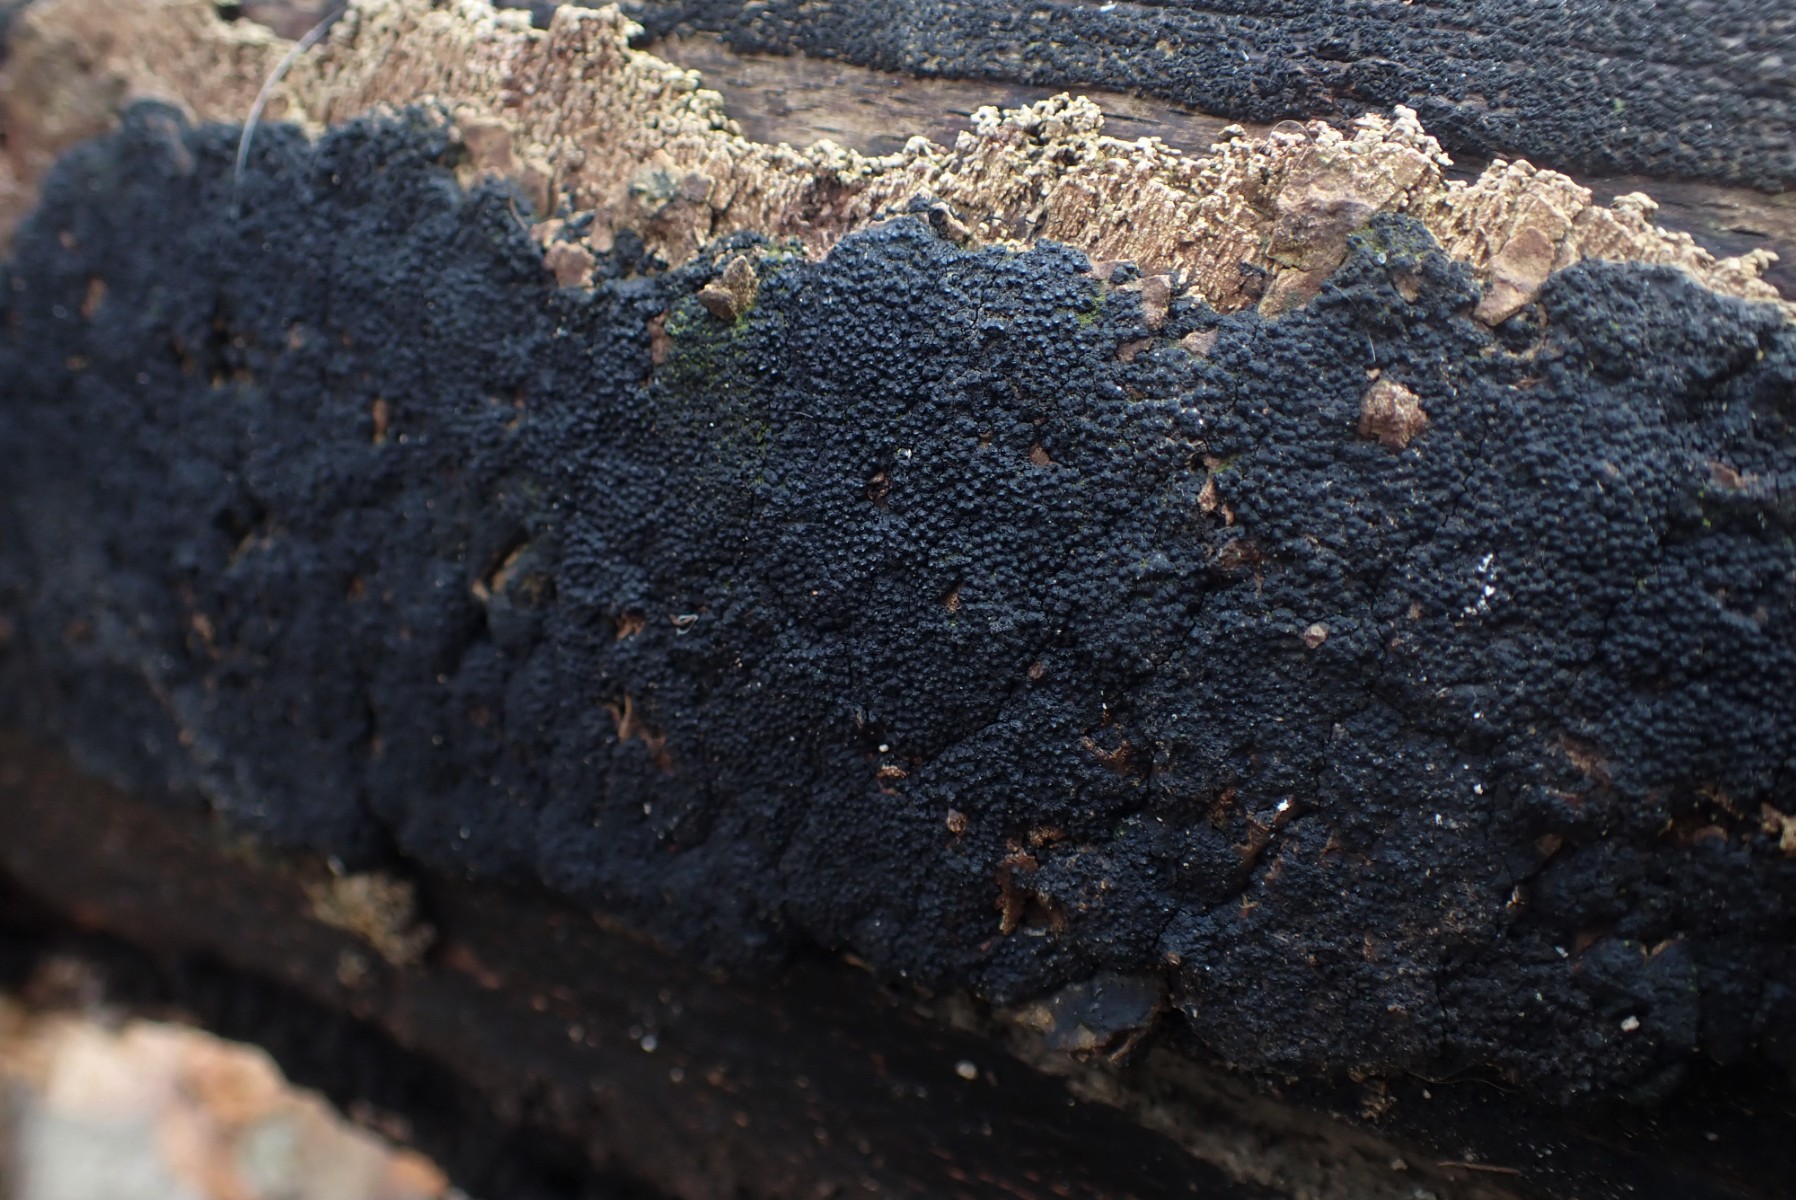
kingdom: Fungi
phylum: Ascomycota
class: Sordariomycetes
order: Xylariales
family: Diatrypaceae
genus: Eutypa
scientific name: Eutypa spinosa
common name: grov kulskorpe
